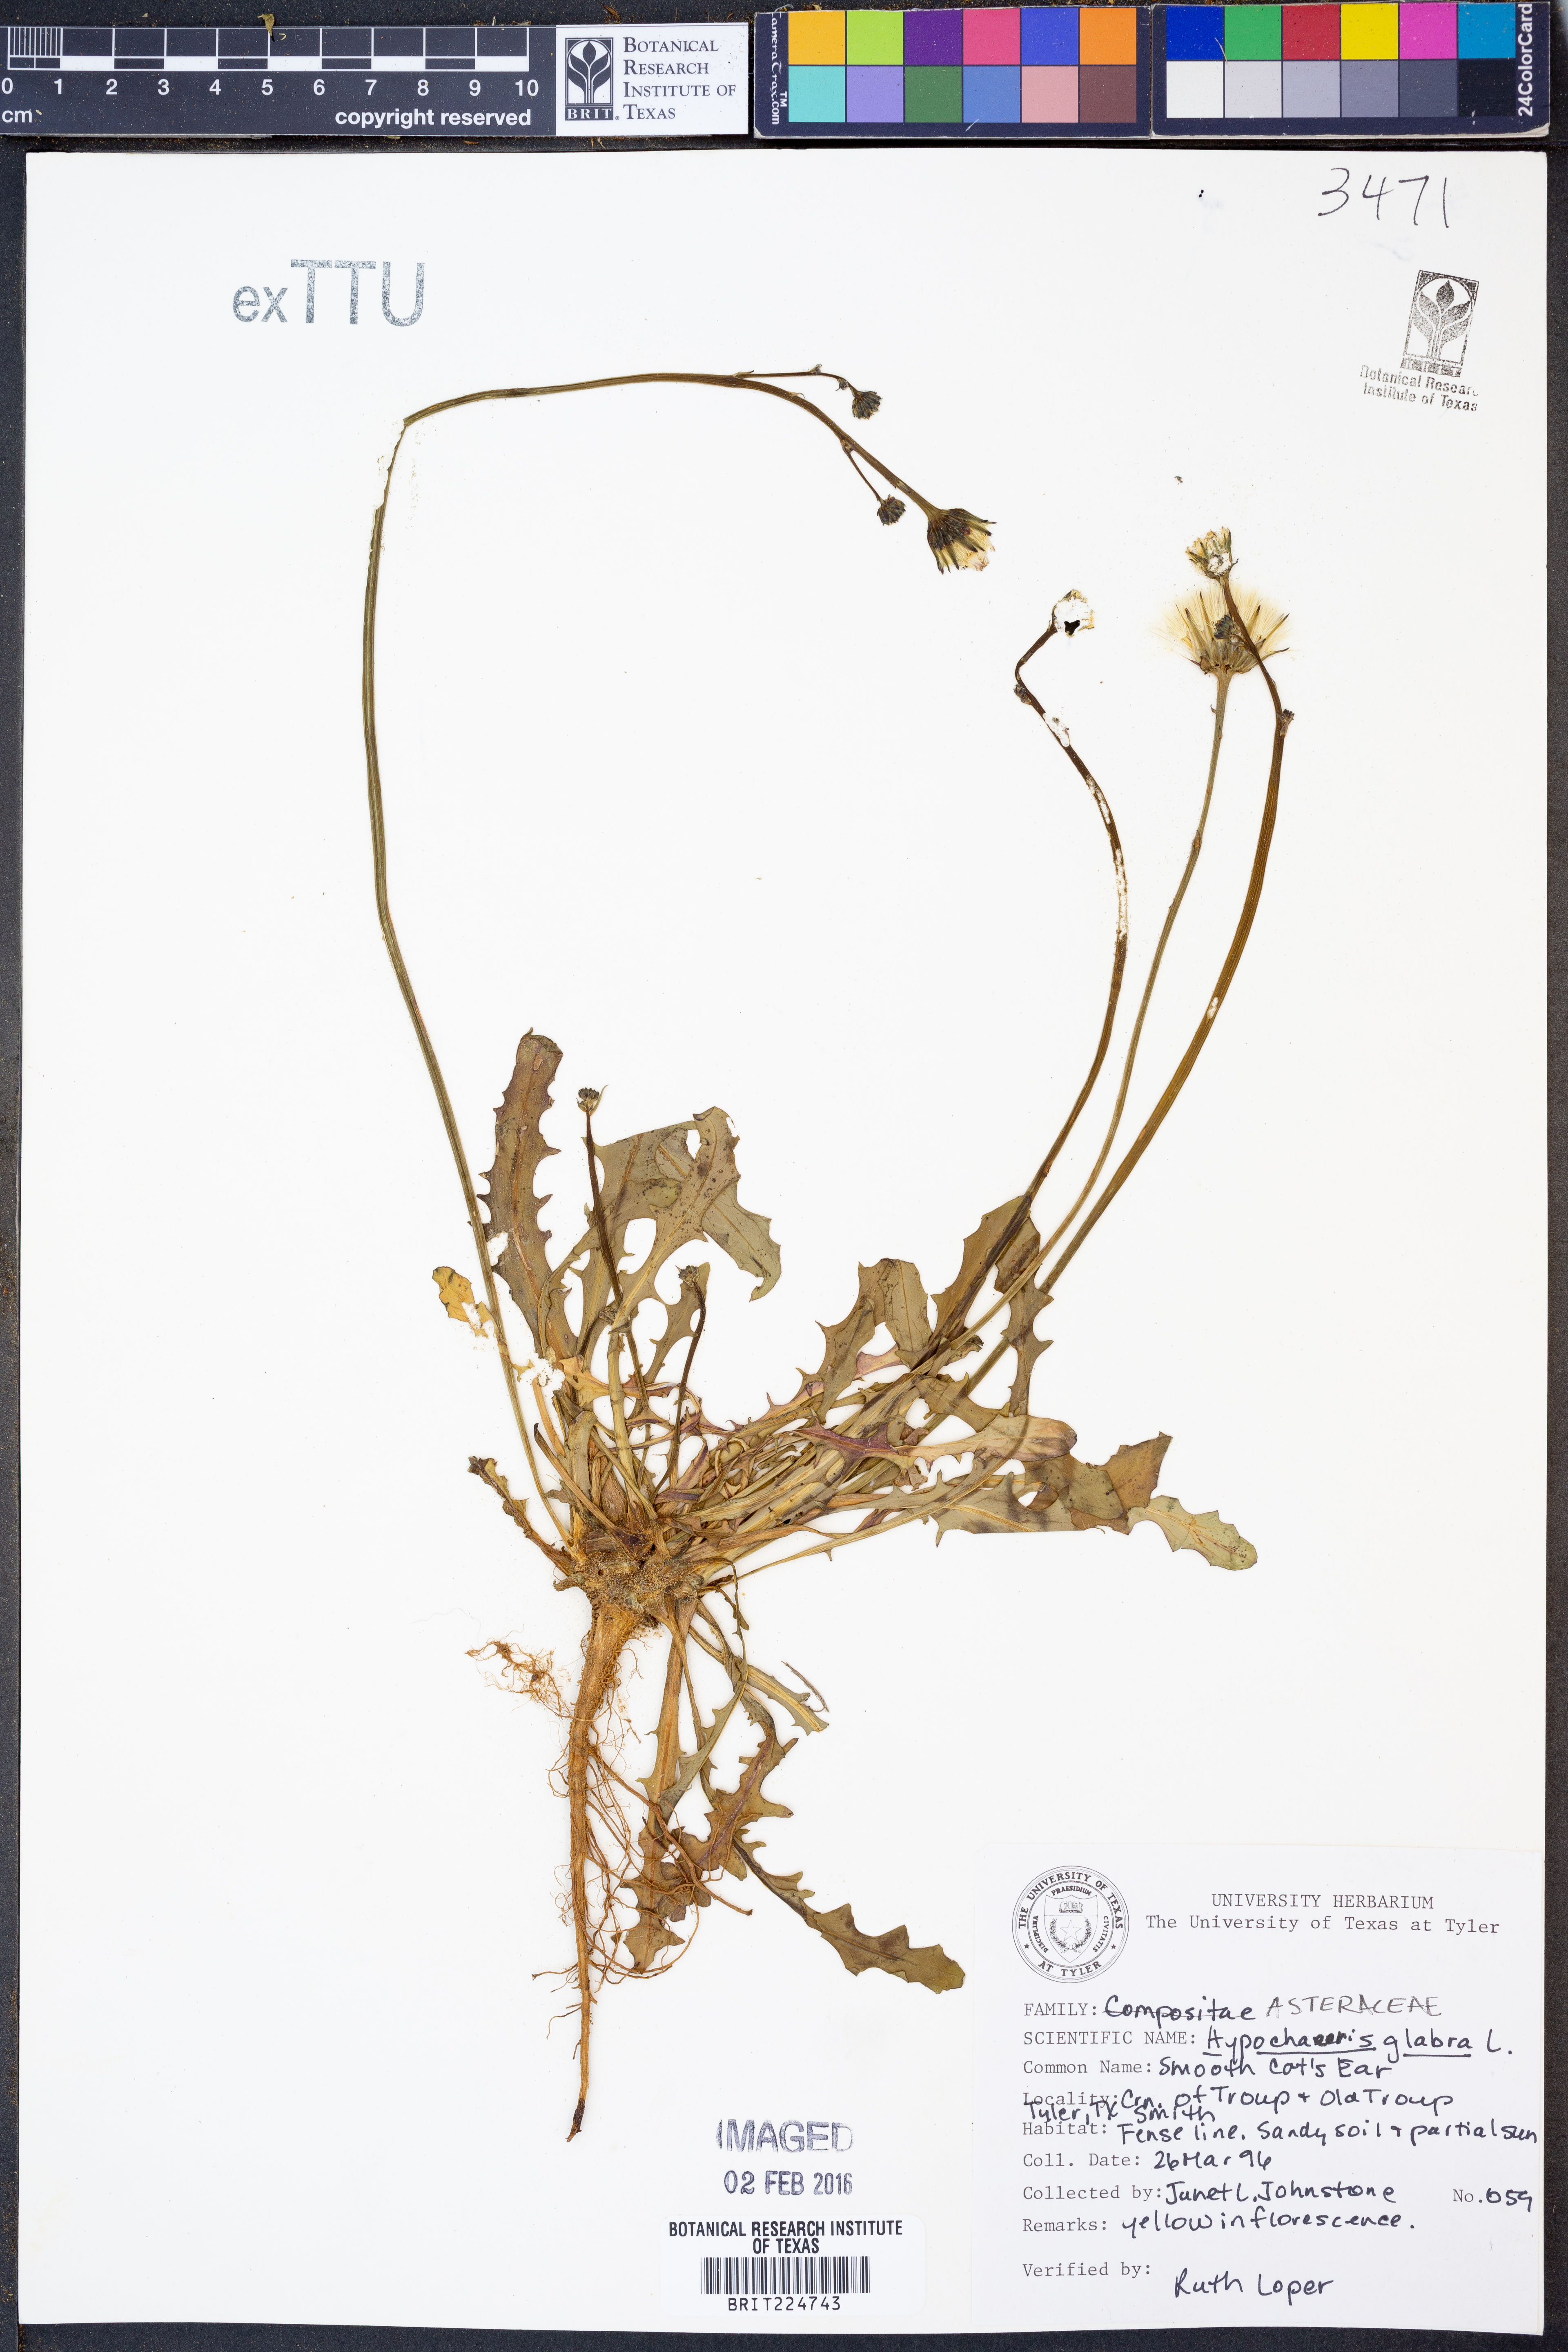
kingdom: Plantae
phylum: Tracheophyta
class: Magnoliopsida
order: Asterales
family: Asteraceae
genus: Hypochaeris
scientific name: Hypochaeris glabra
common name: Smooth catsear
